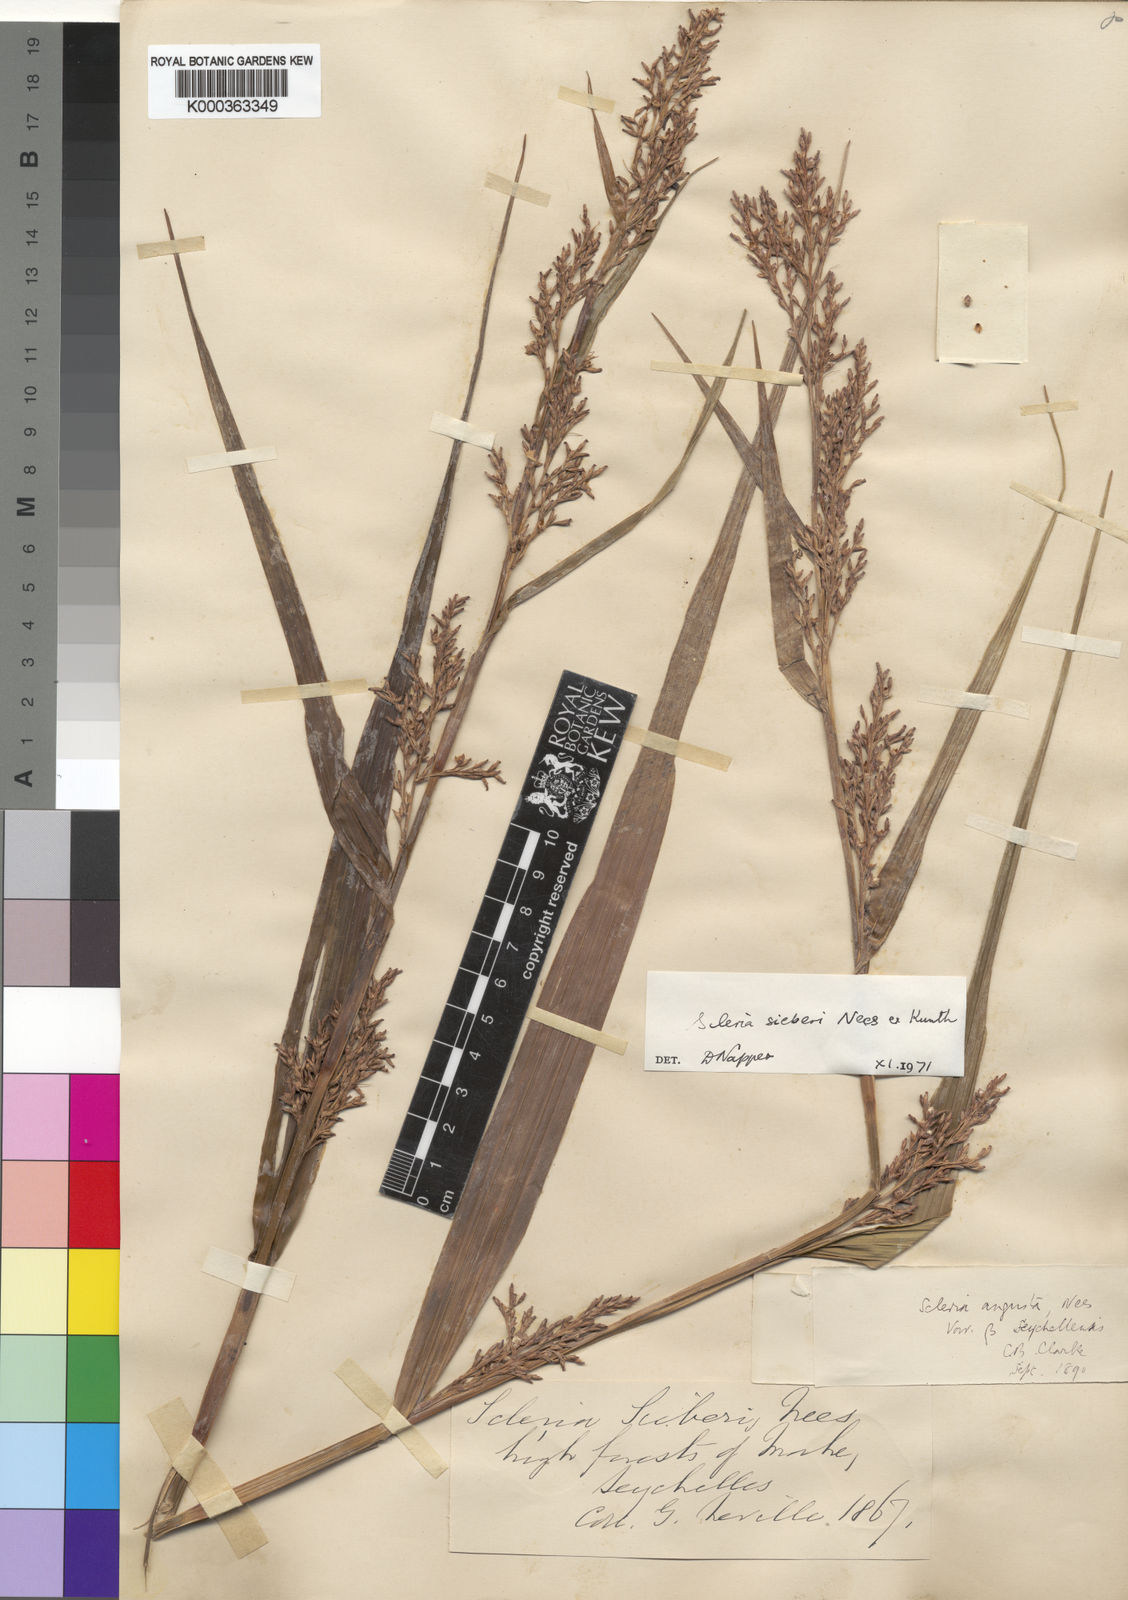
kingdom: Plantae
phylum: Tracheophyta
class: Liliopsida
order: Poales
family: Cyperaceae
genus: Scleria
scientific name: Scleria gaertneri
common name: Cortadera blanca
